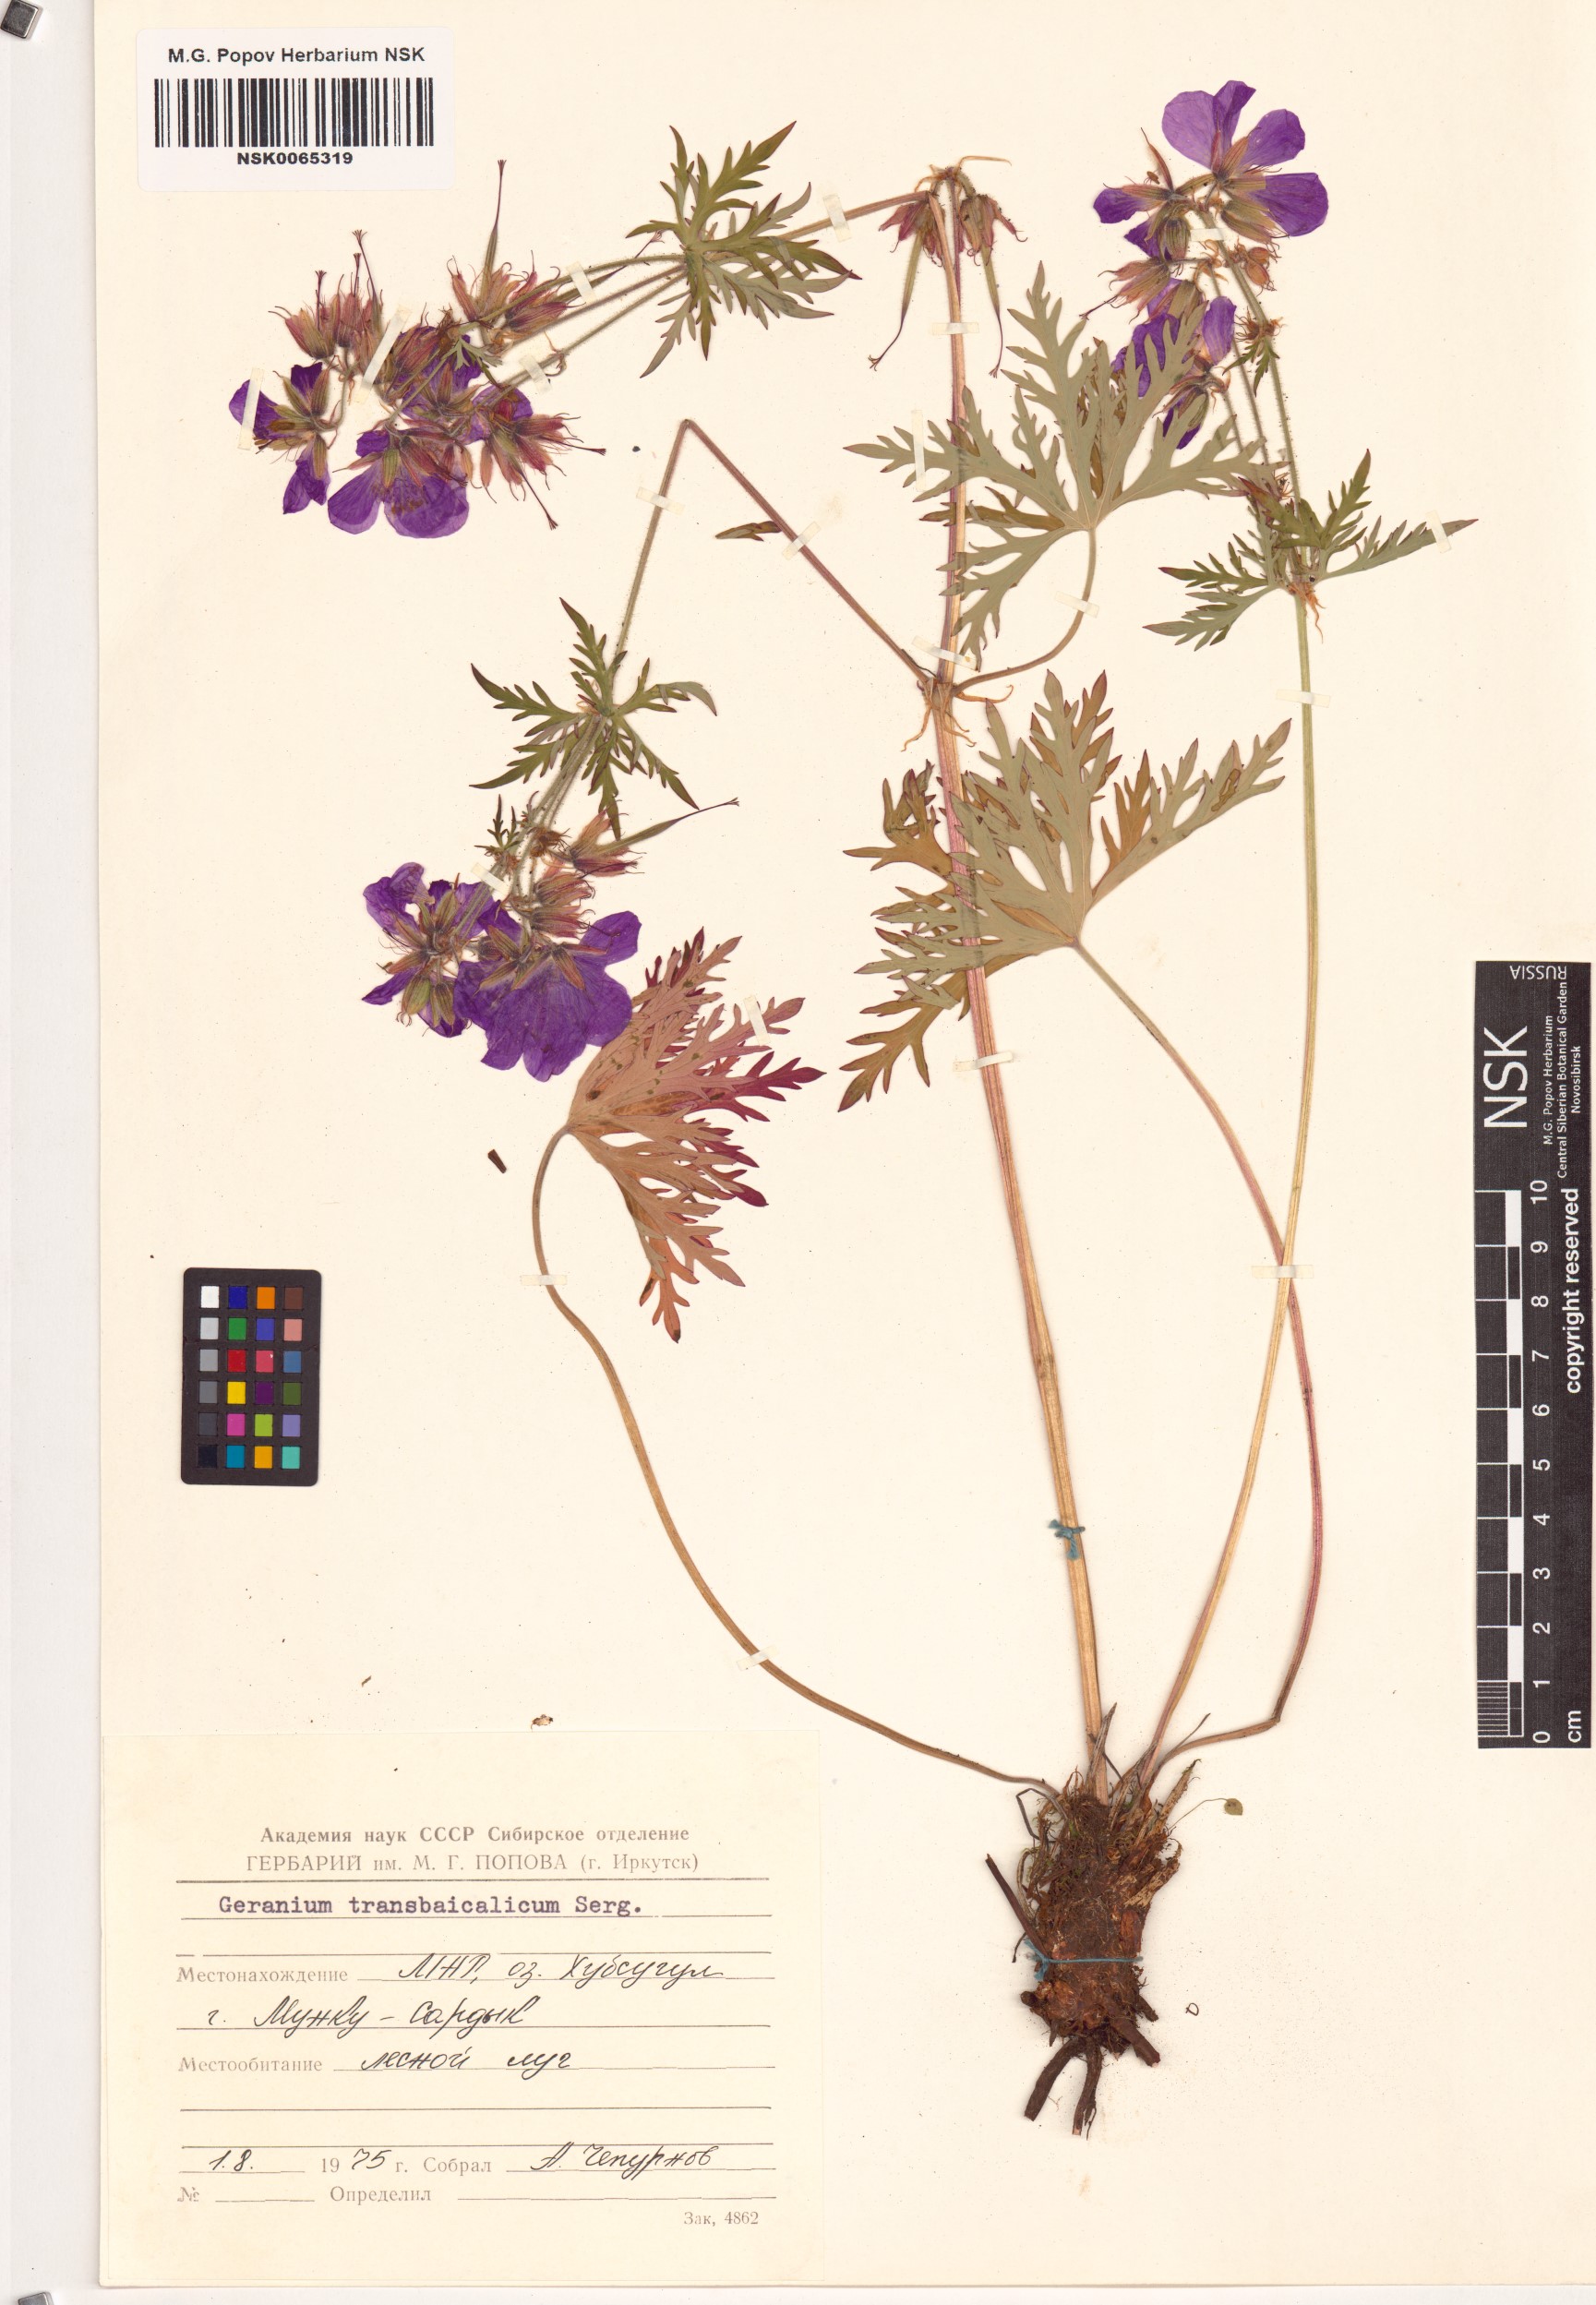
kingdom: Plantae
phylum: Tracheophyta
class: Magnoliopsida
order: Geraniales
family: Geraniaceae
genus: Geranium
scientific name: Geranium pratense
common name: Meadow crane's-bill
